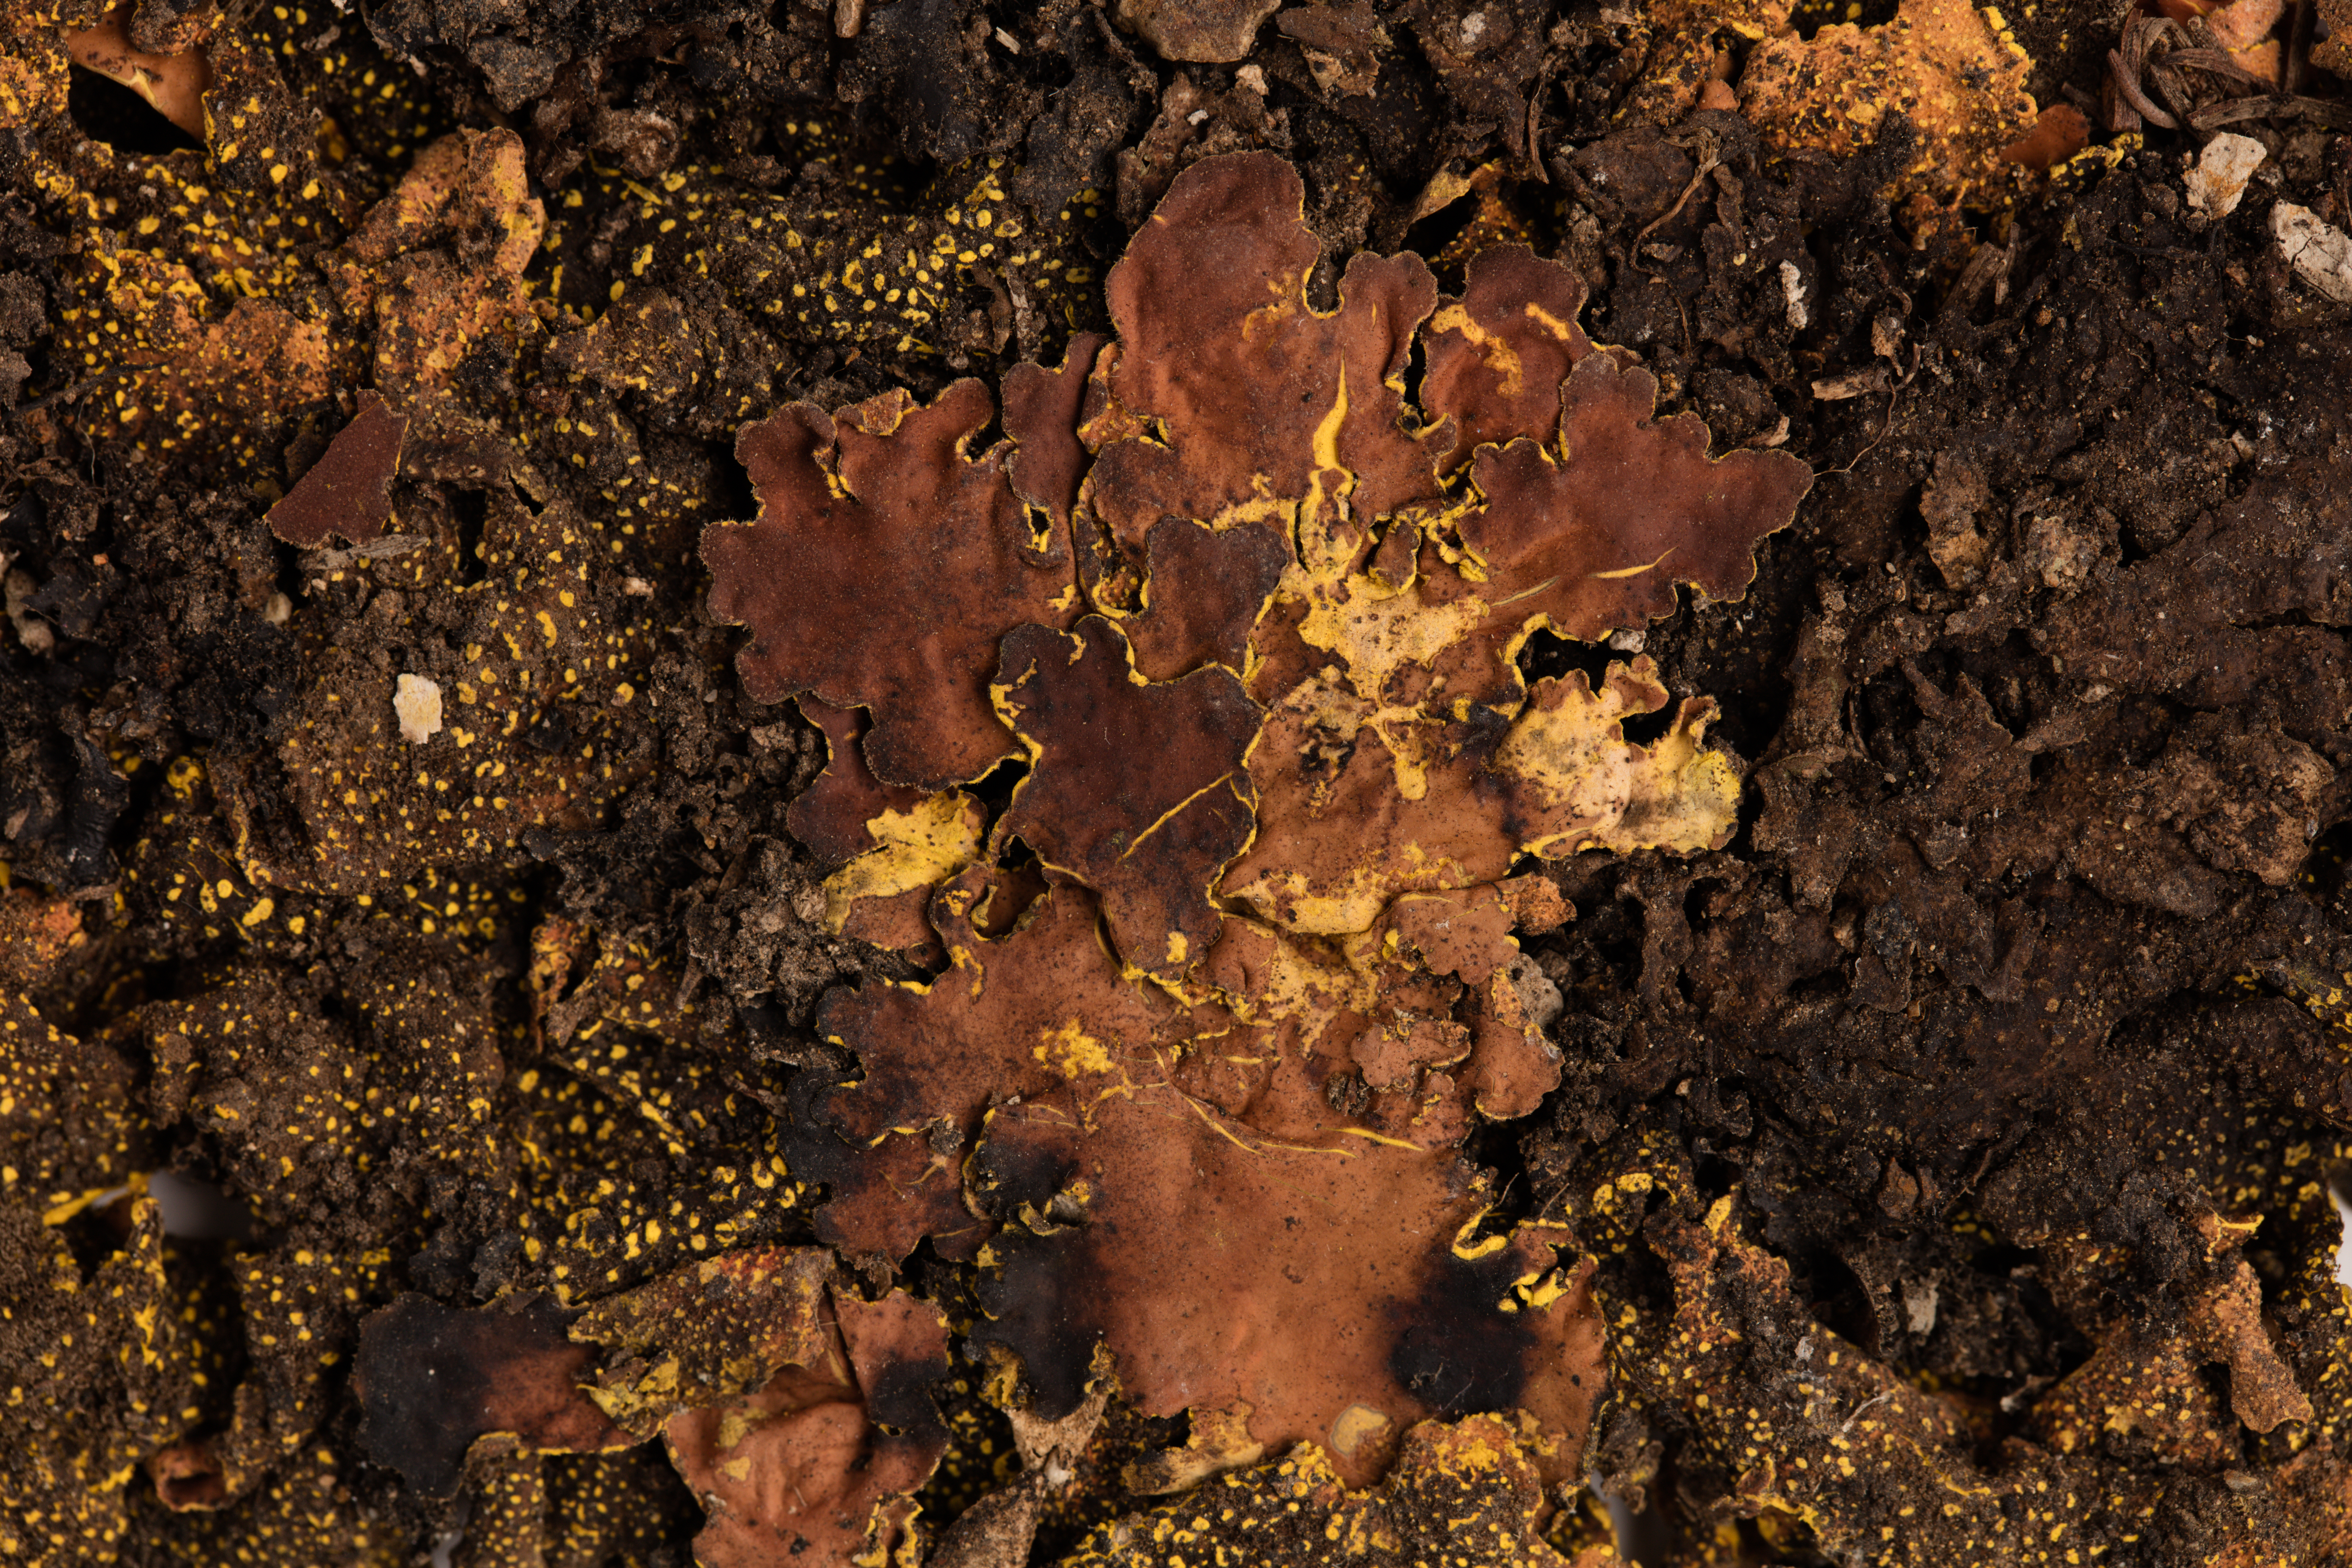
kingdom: Fungi
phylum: Ascomycota
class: Lecanoromycetes
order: Peltigerales
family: Lobariaceae
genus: Pseudocyphellaria
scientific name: Pseudocyphellaria crocata
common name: Golden specklebelly
